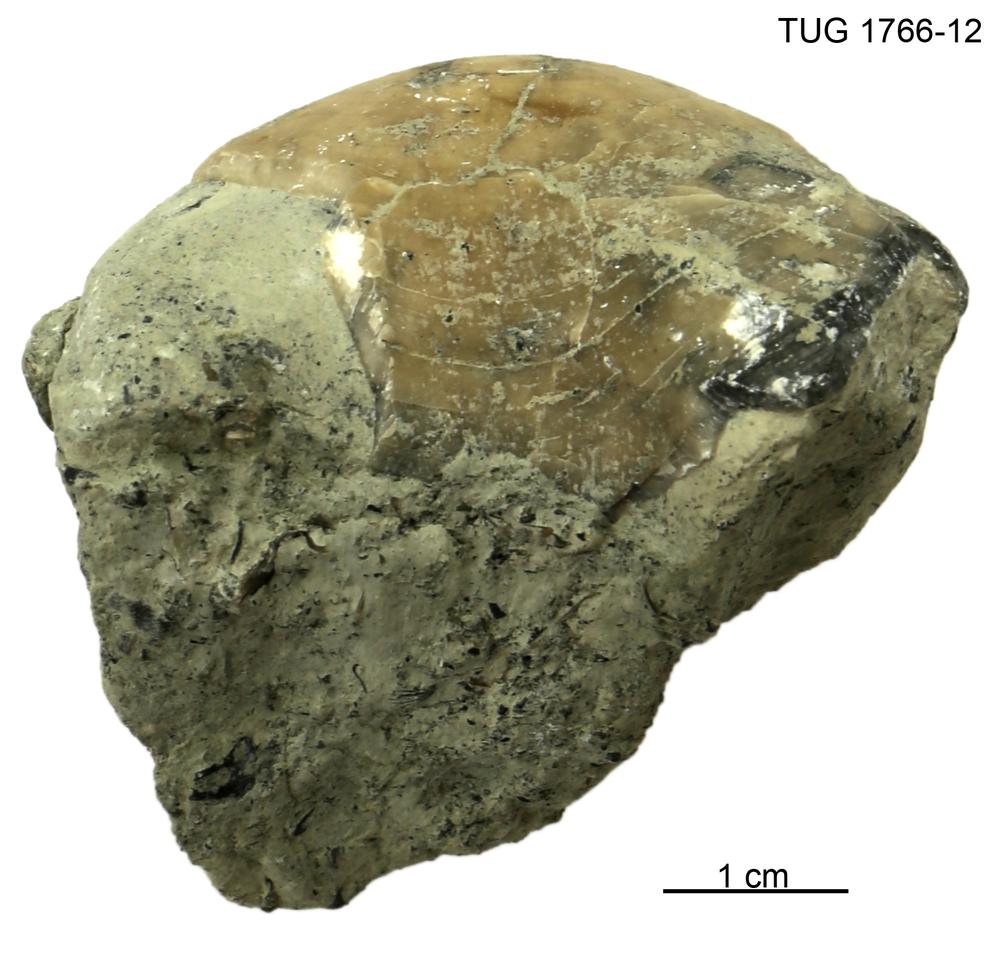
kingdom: Animalia
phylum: Brachiopoda
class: Rhynchonellata
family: Porambonitidae
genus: Porambonites
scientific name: Porambonites
